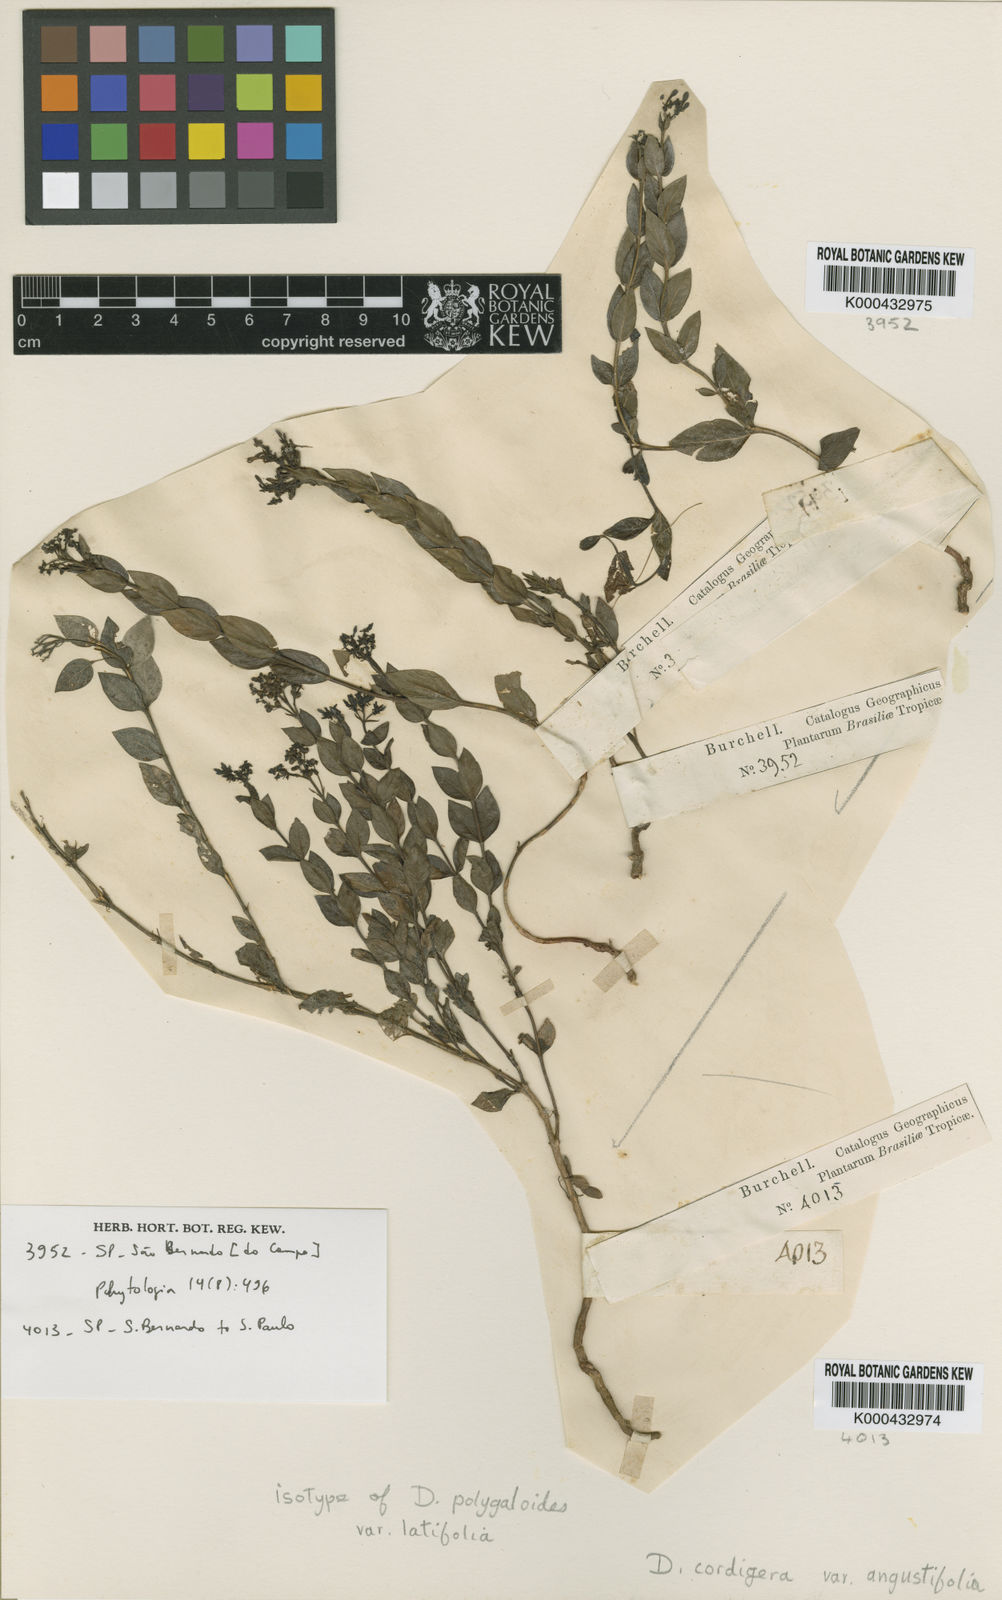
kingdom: Plantae
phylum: Tracheophyta
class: Magnoliopsida
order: Gentianales
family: Rubiaceae
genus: Declieuxia
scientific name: Declieuxia
